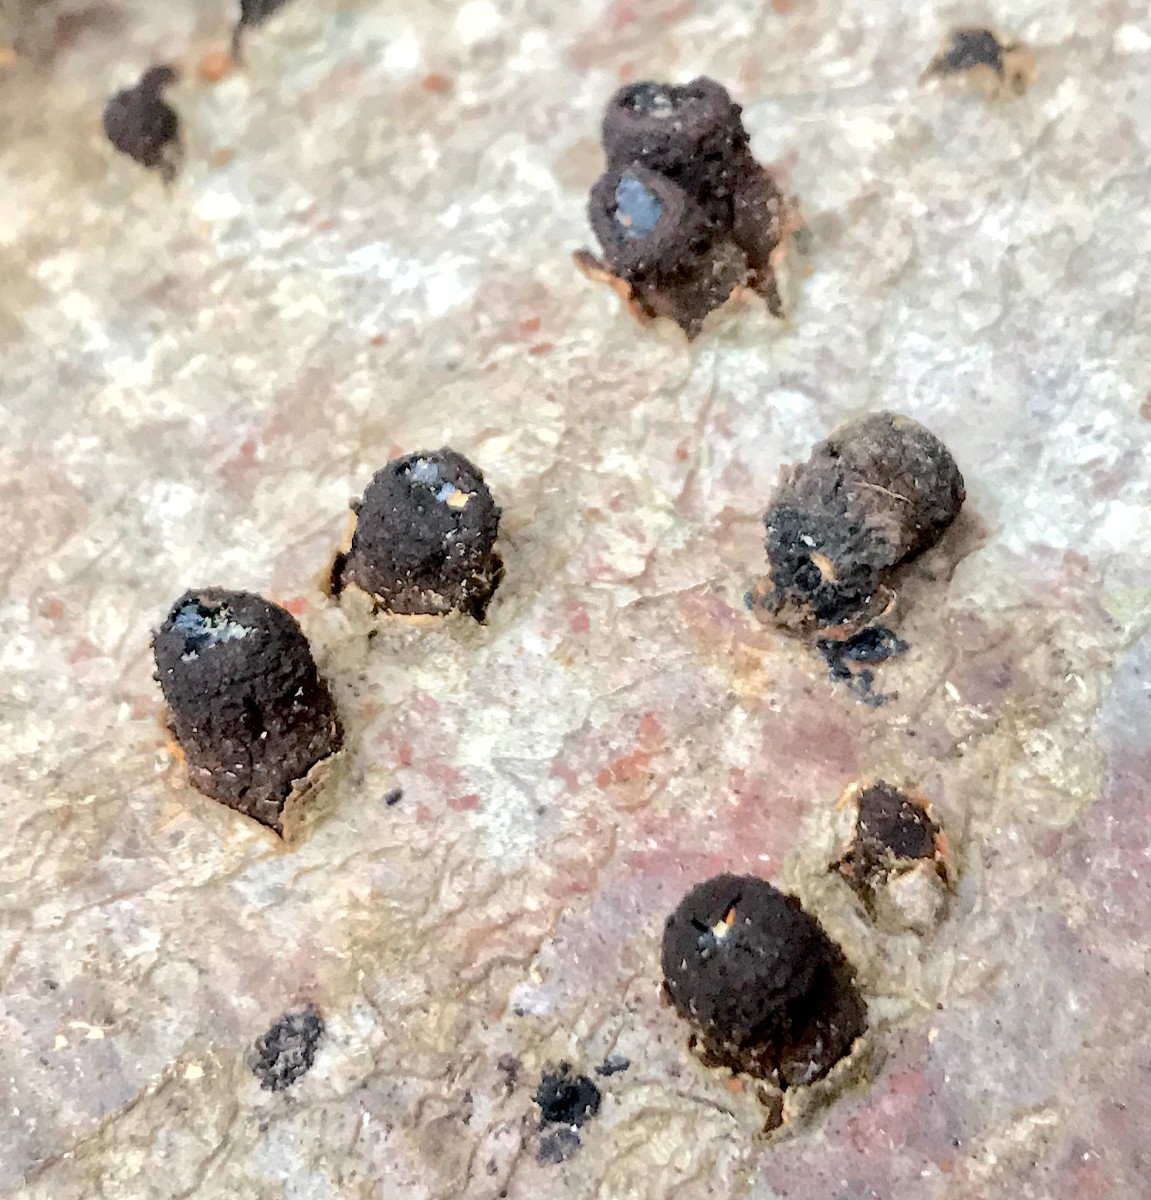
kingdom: Fungi
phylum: Ascomycota
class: Leotiomycetes
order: Phacidiales
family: Phacidiaceae
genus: Bulgaria
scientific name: Bulgaria inquinans
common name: afsmittende topsvamp
